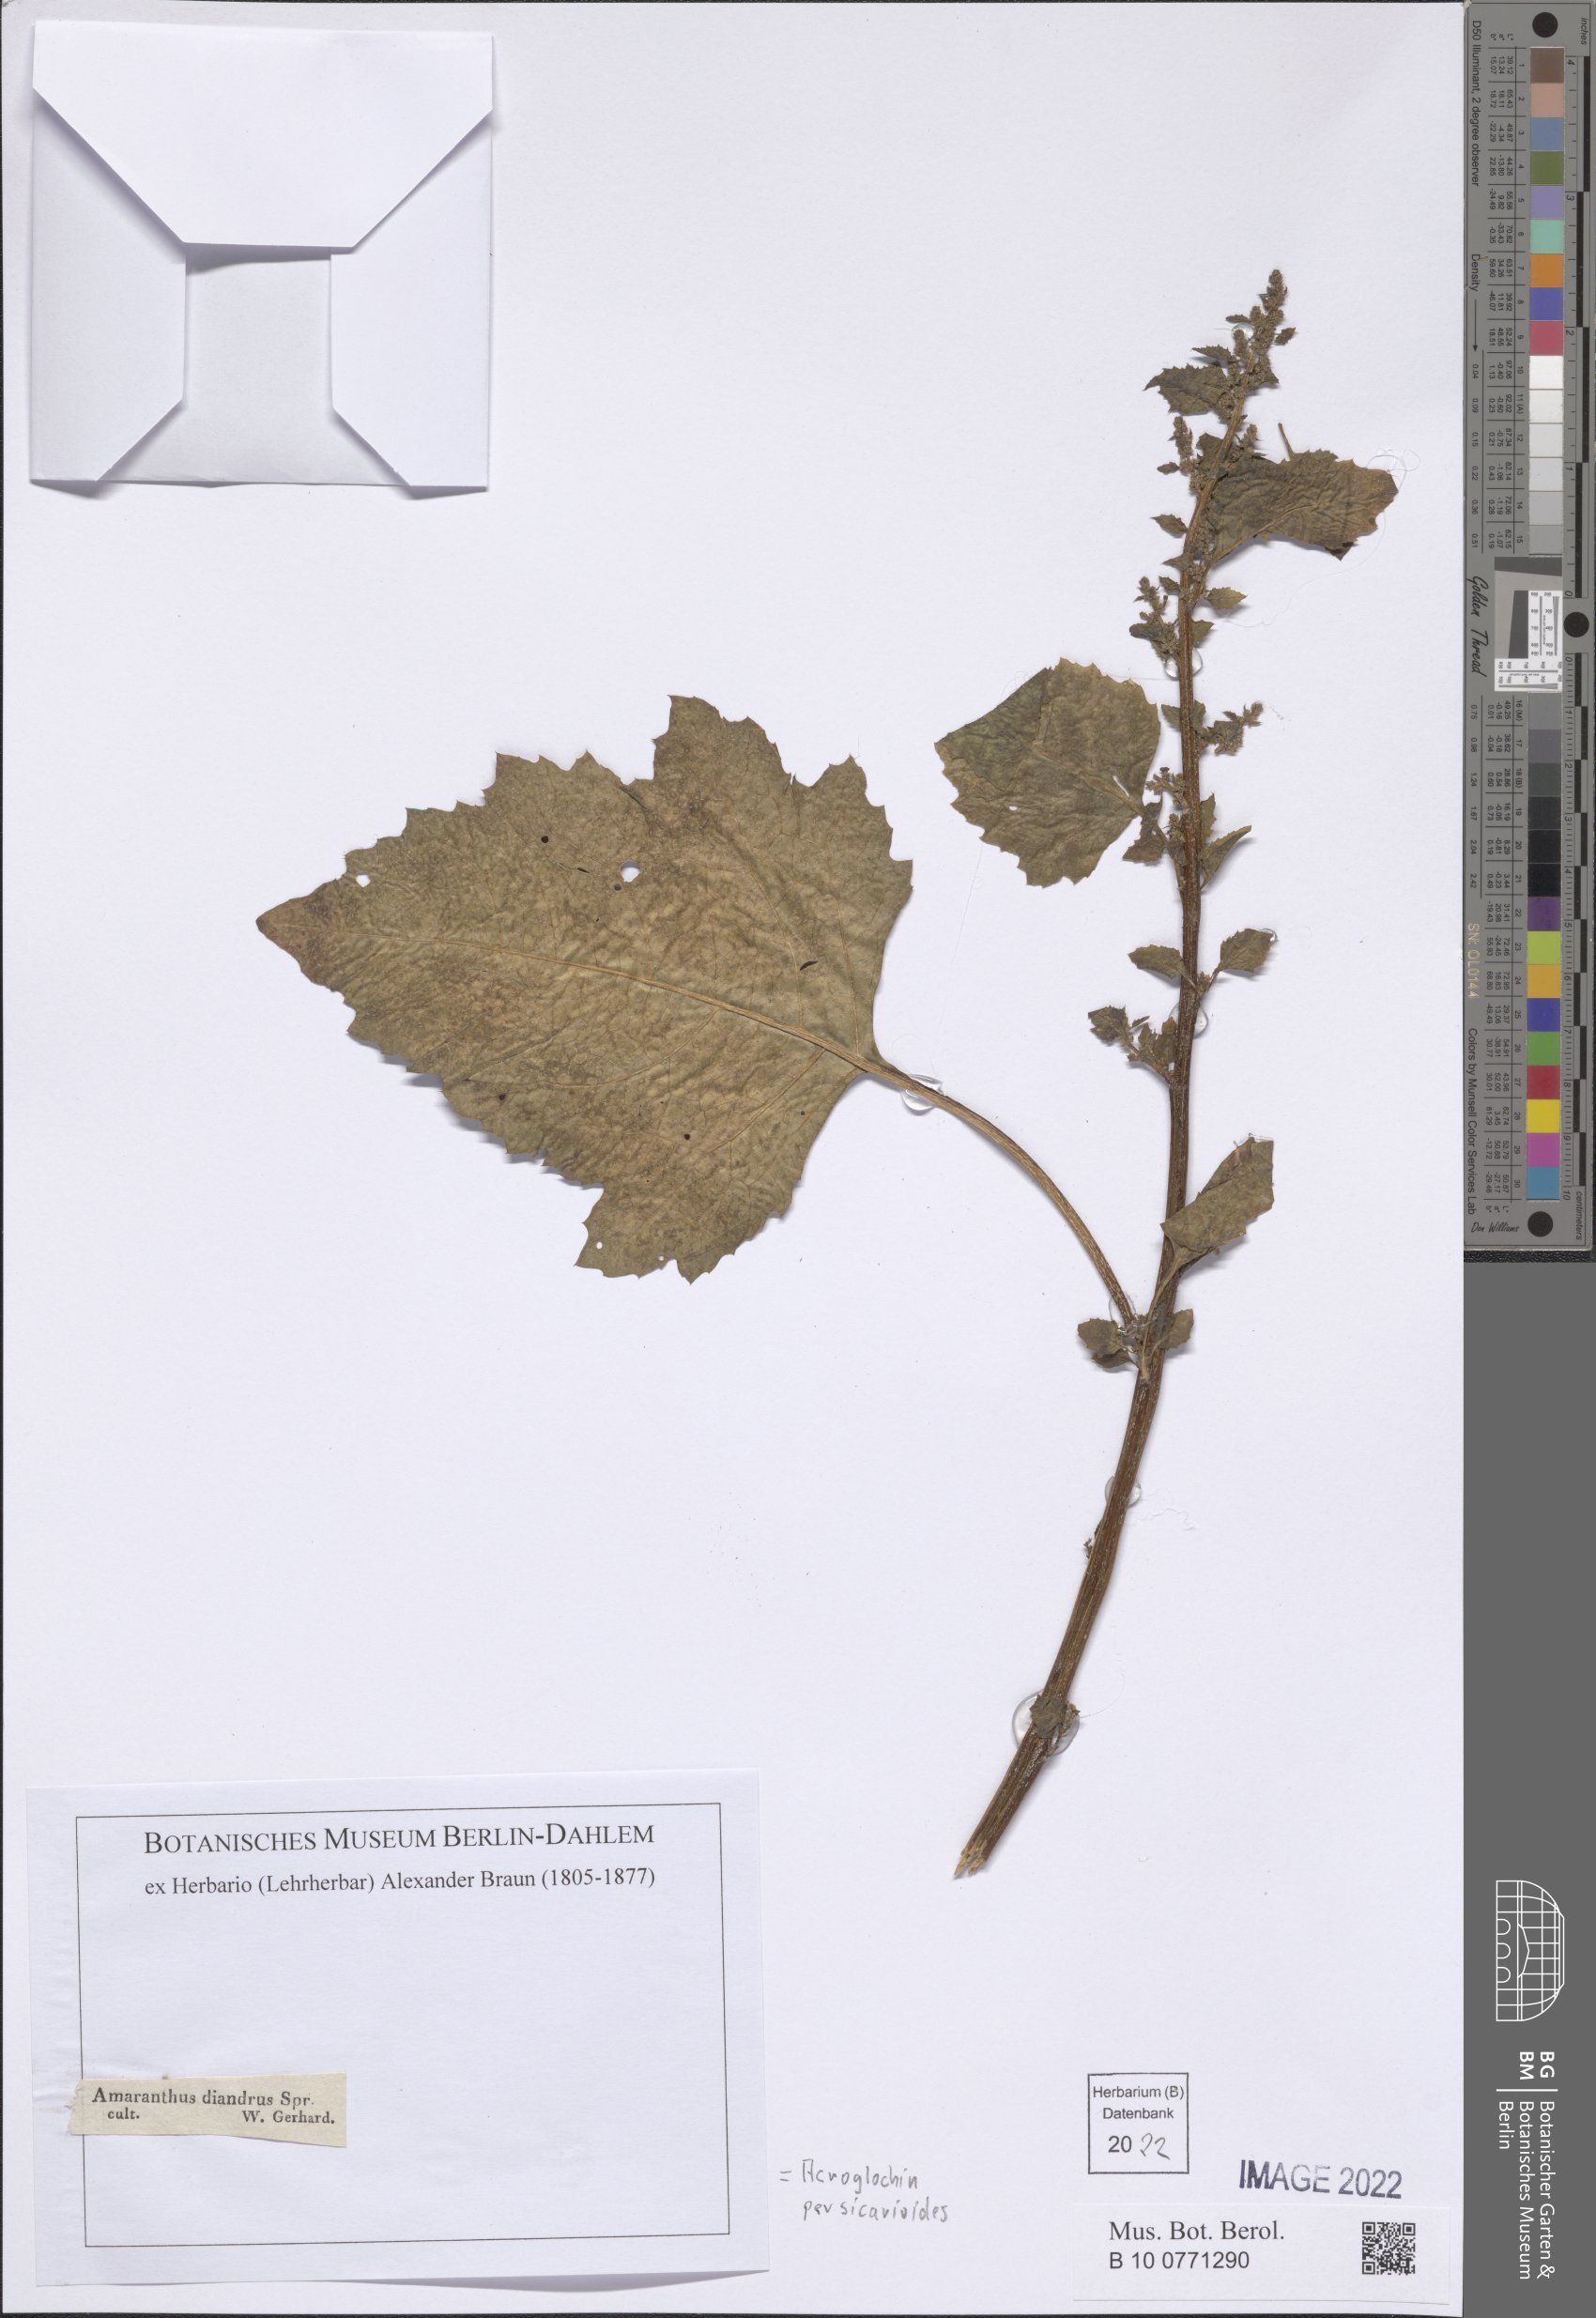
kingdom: Plantae
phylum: Tracheophyta
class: Magnoliopsida
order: Caryophyllales
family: Amaranthaceae
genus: Acroglochin
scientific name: Acroglochin persicarioides
